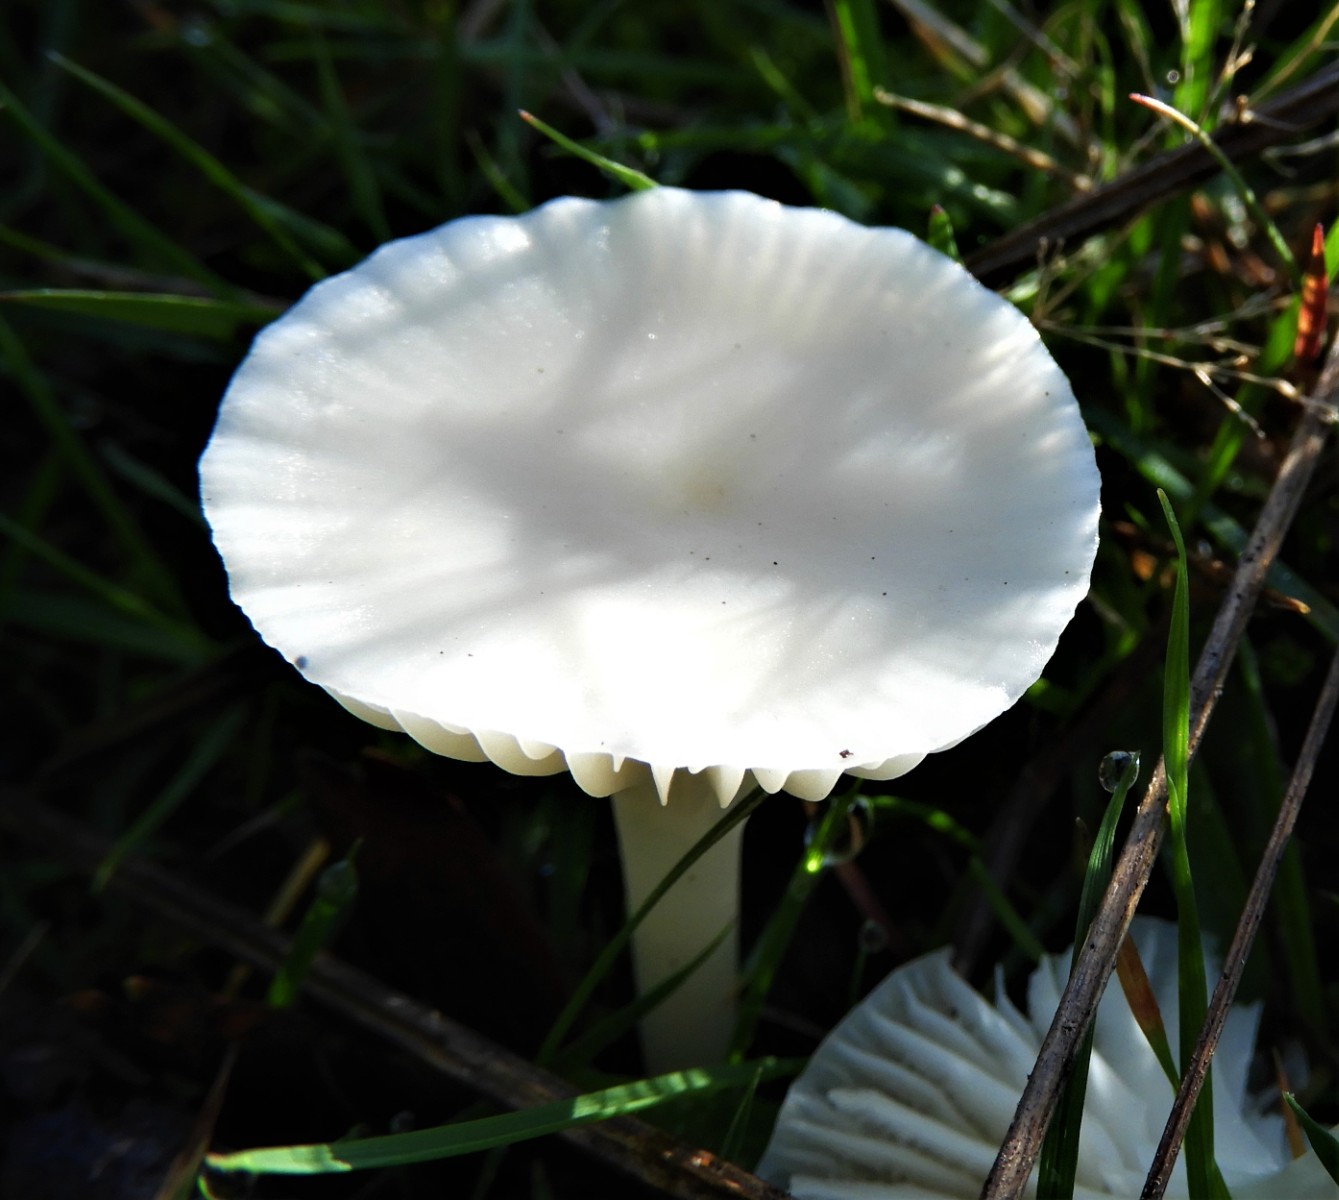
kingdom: Fungi
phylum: Basidiomycota
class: Agaricomycetes
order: Agaricales
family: Hygrophoraceae
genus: Cuphophyllus
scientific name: Cuphophyllus virgineus
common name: snehvid vokshat
